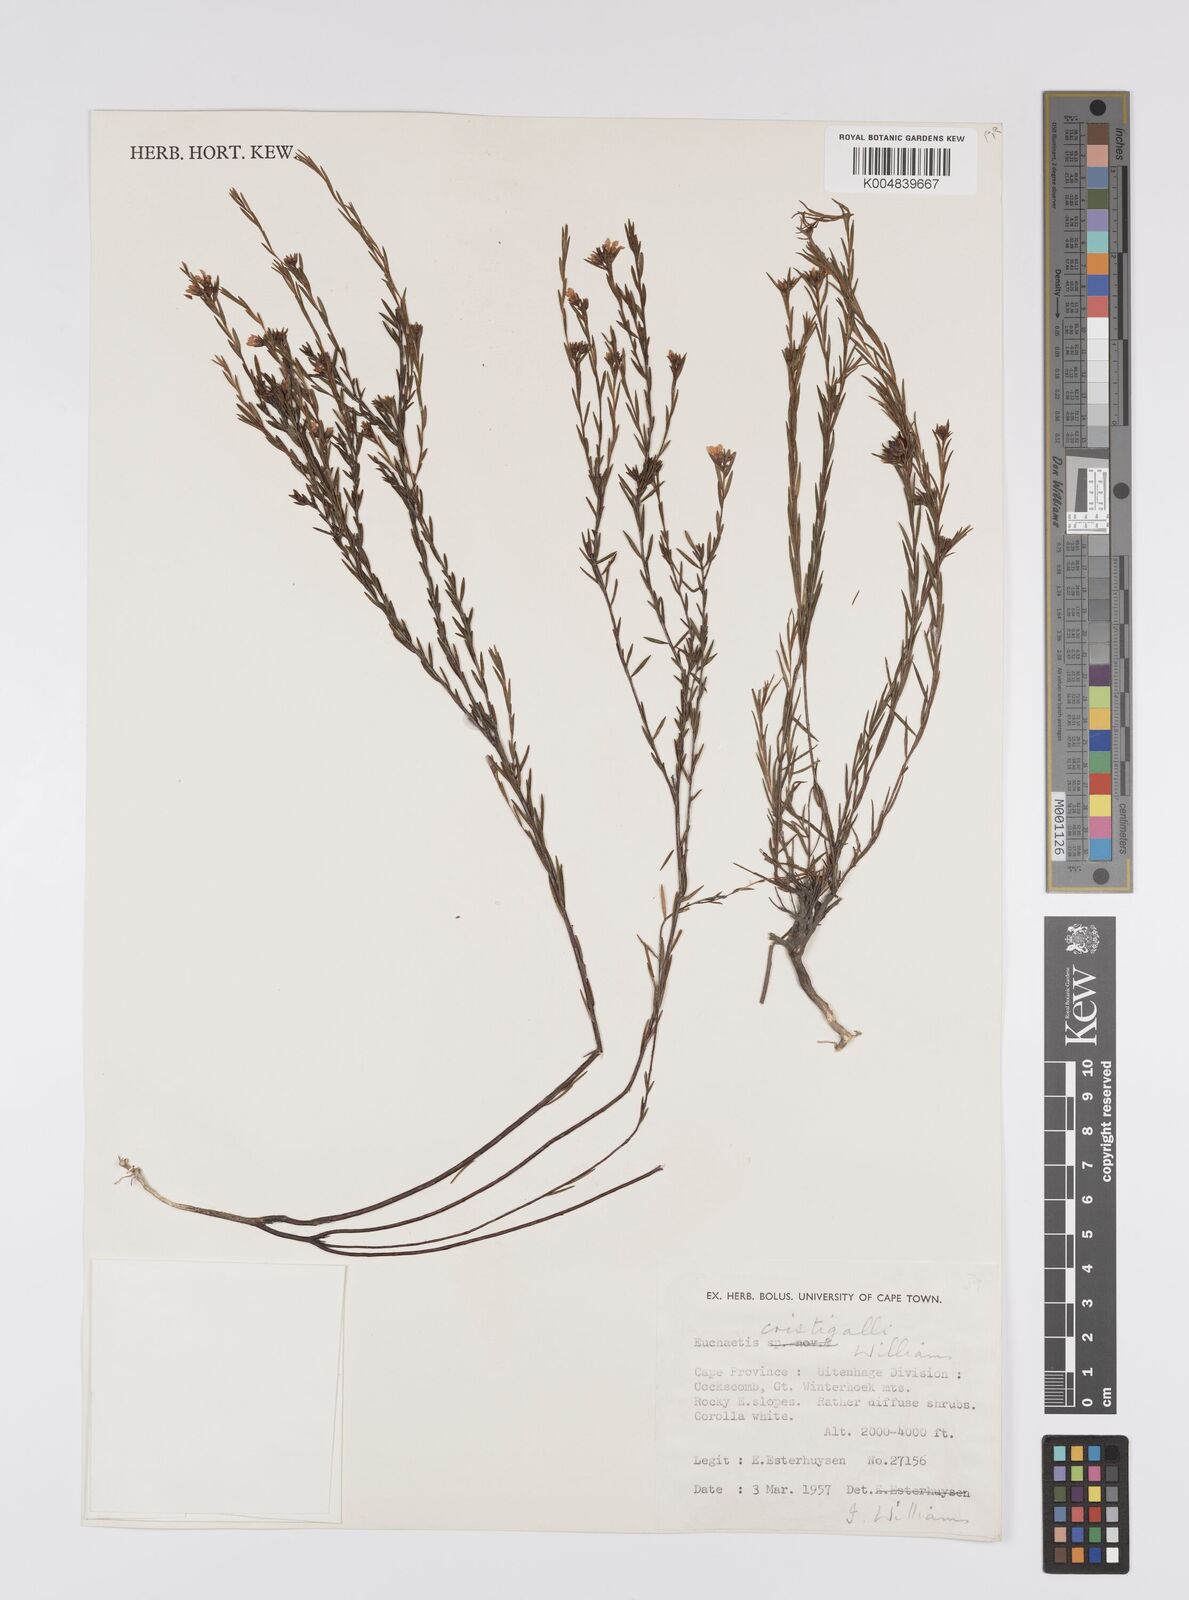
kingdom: Plantae
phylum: Tracheophyta
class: Magnoliopsida
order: Sapindales
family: Rutaceae
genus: Euchaetis
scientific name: Euchaetis cristagalli
